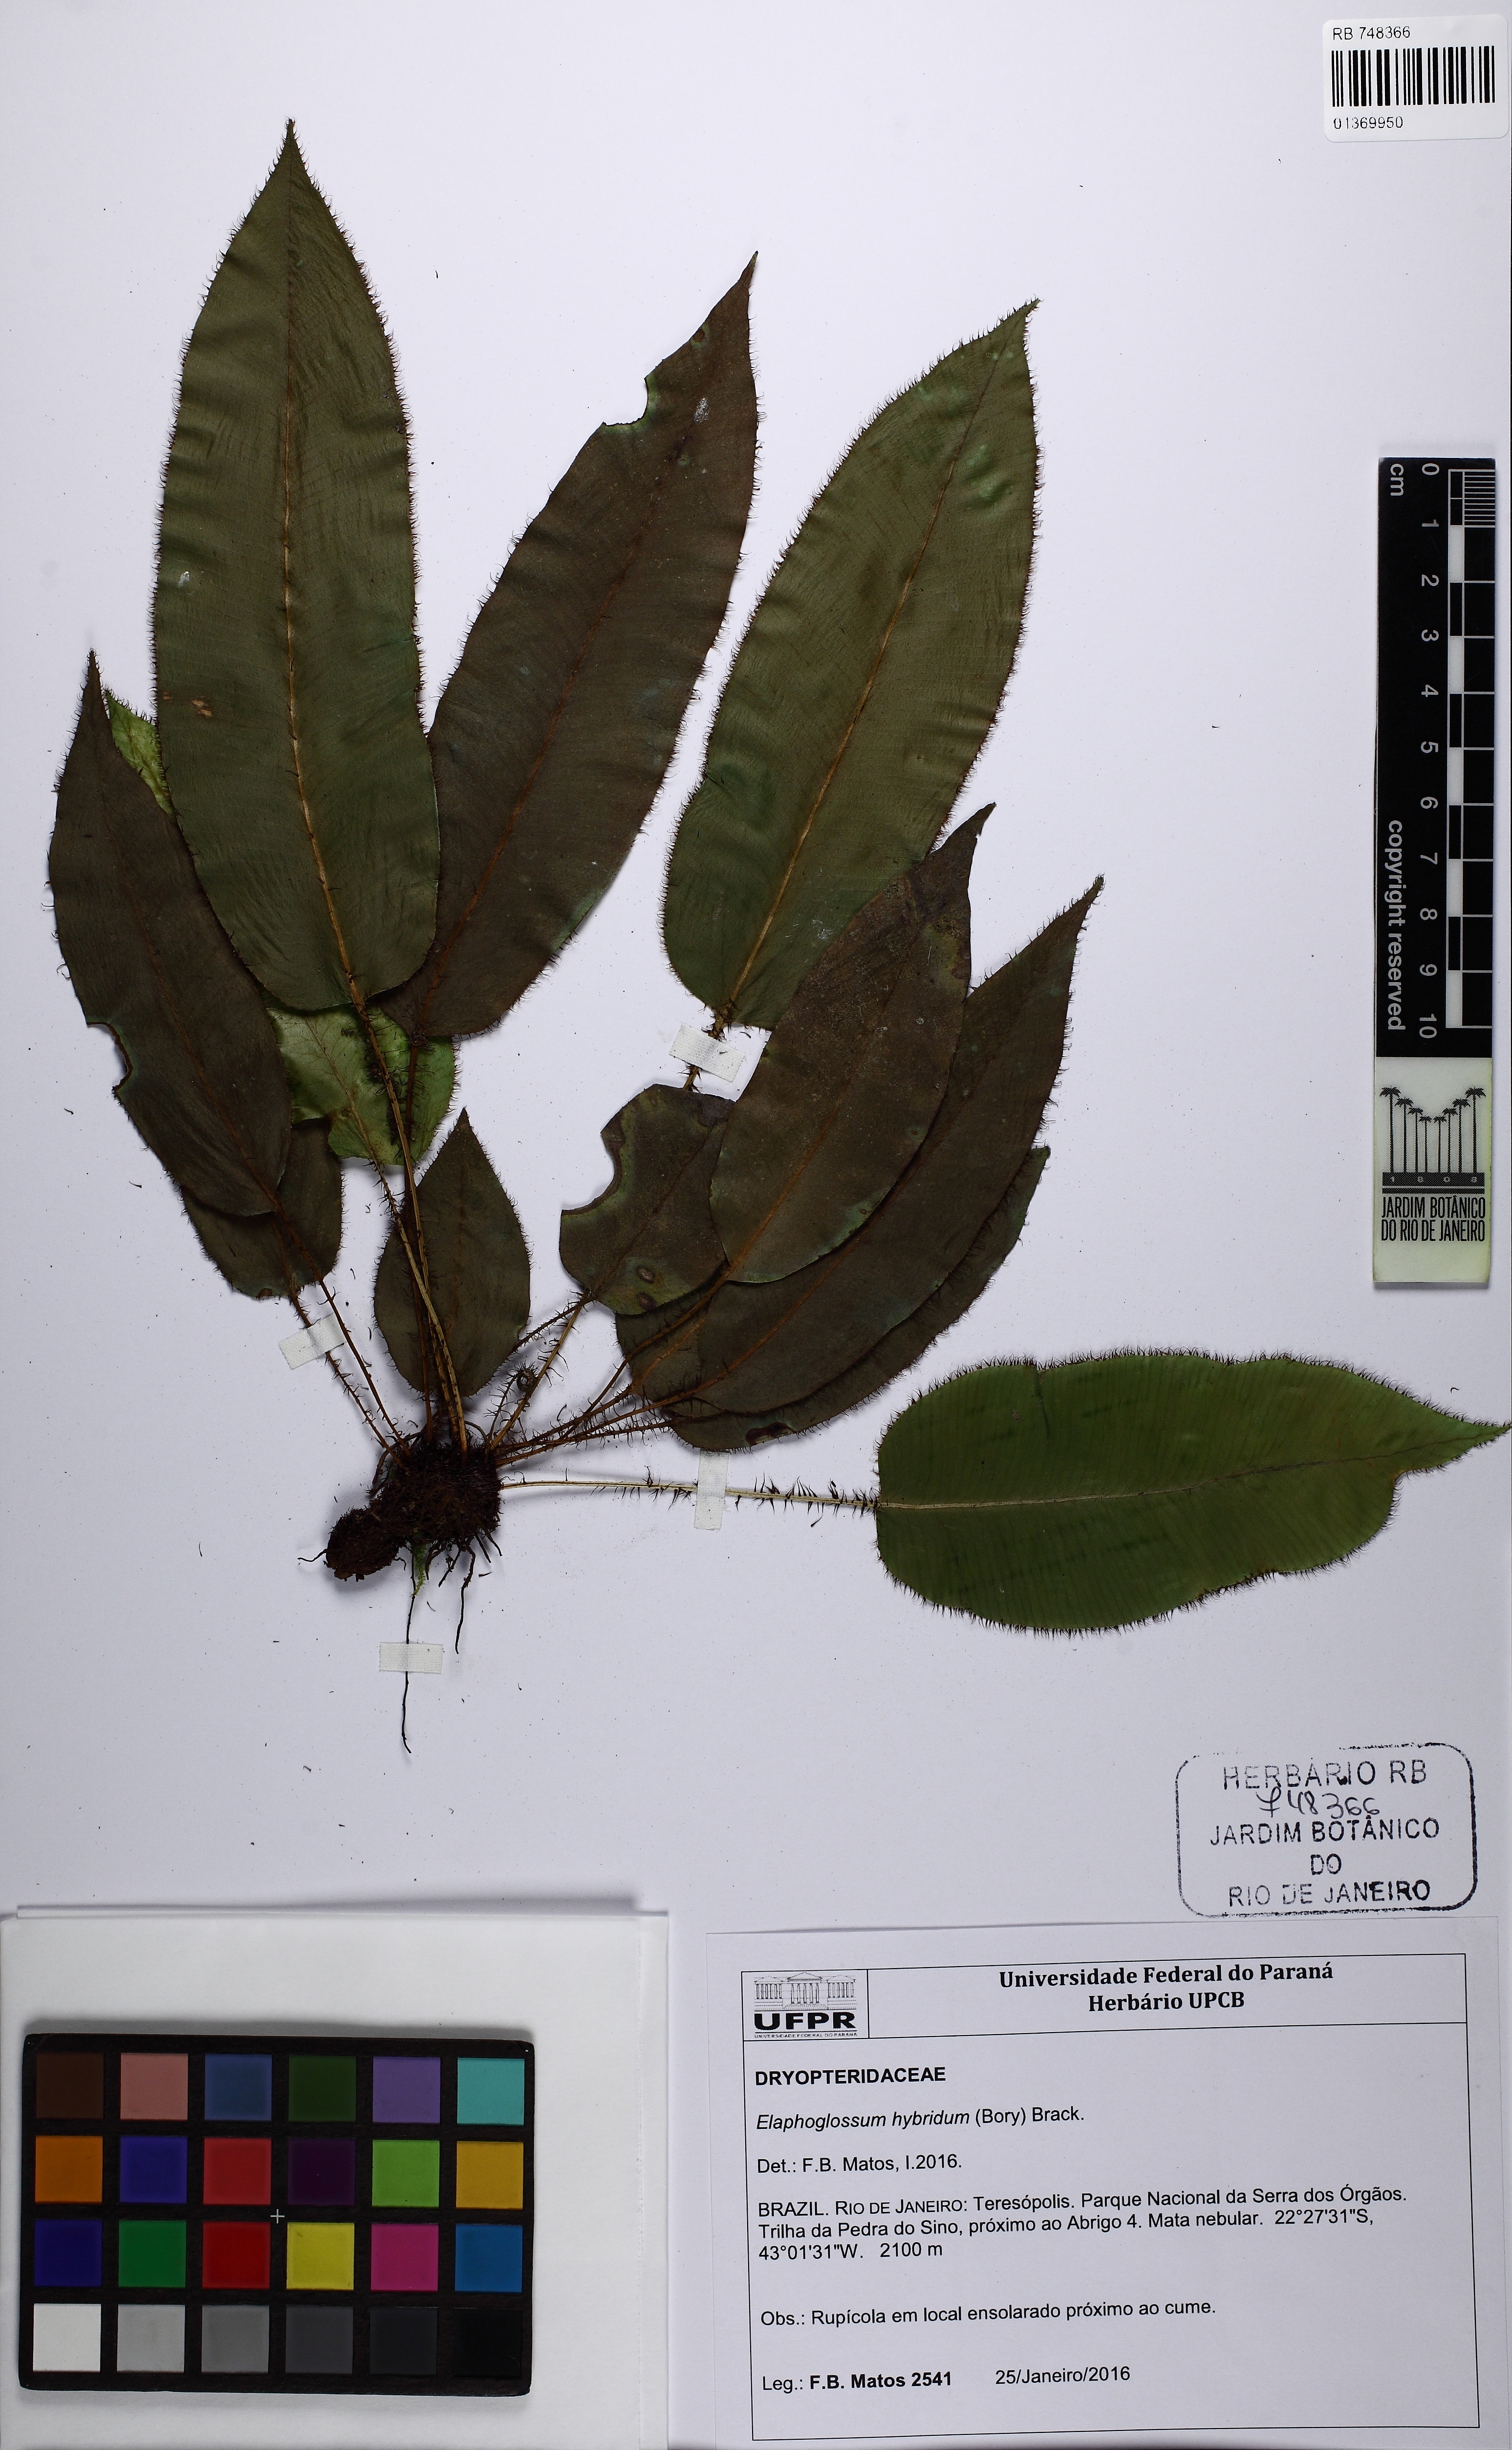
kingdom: Plantae
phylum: Tracheophyta
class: Polypodiopsida
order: Polypodiales
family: Dryopteridaceae
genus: Elaphoglossum
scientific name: Elaphoglossum hybridum
